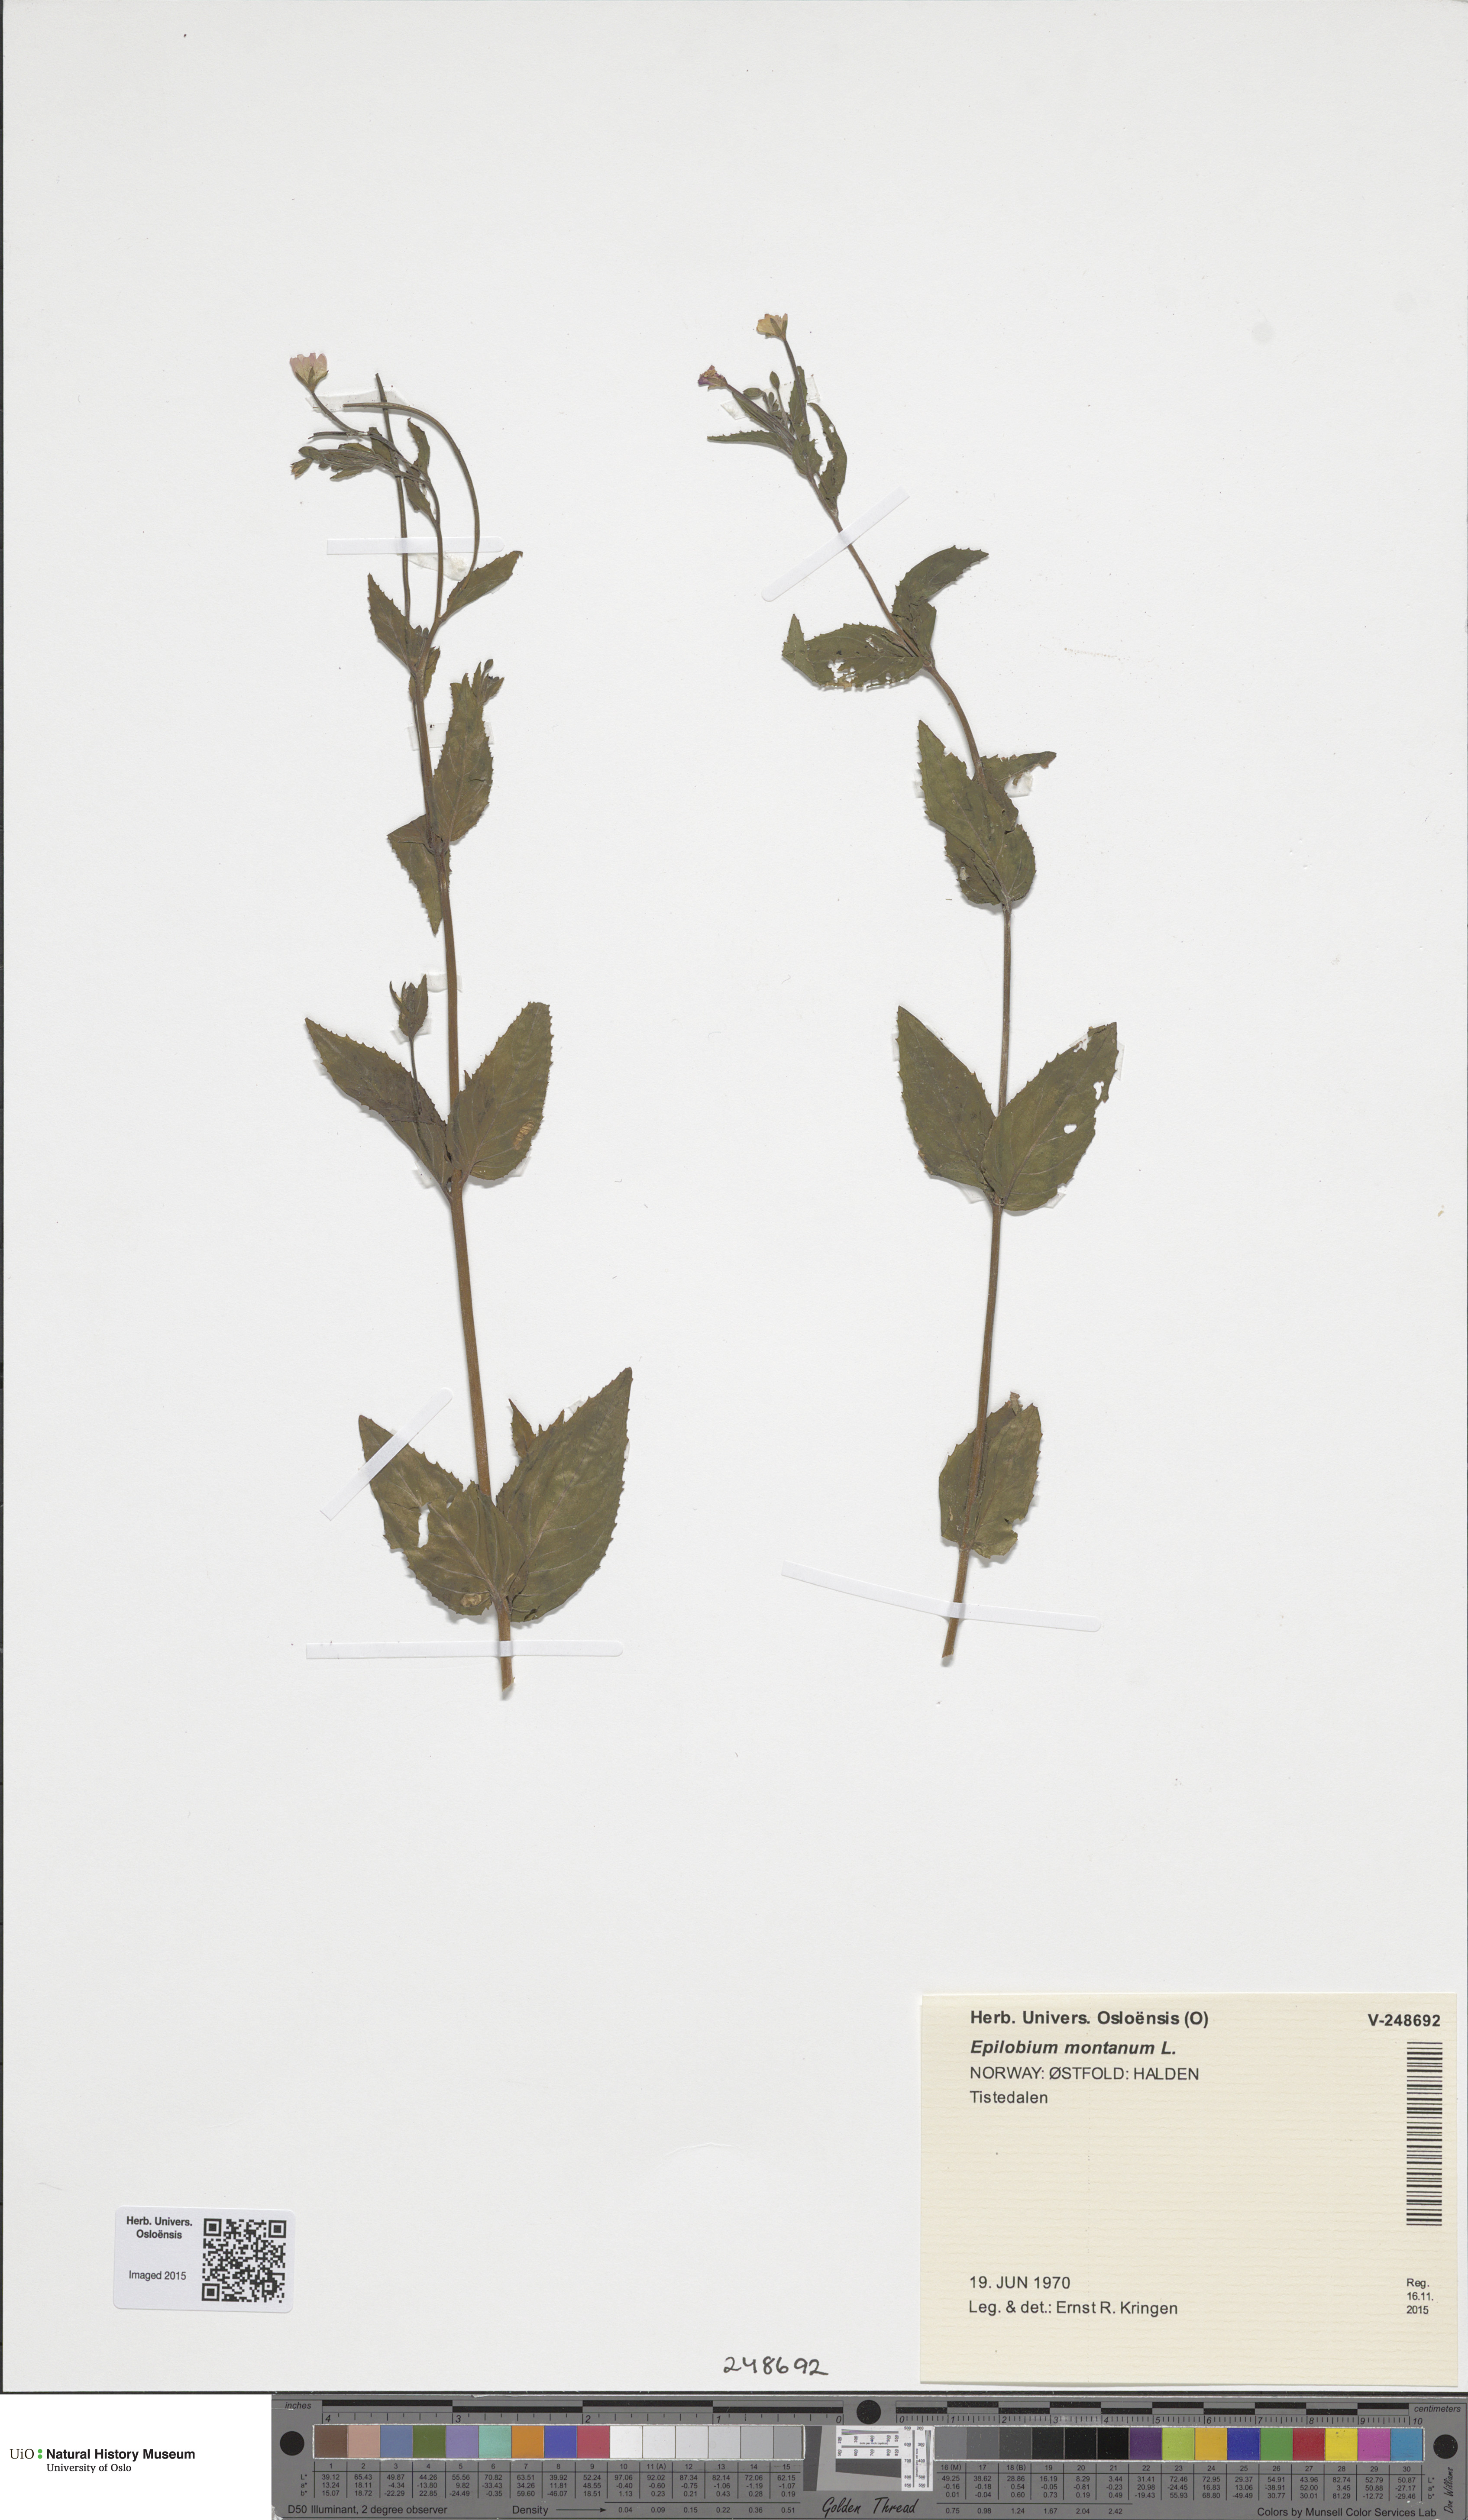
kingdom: Plantae
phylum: Tracheophyta
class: Magnoliopsida
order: Myrtales
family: Onagraceae
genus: Epilobium
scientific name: Epilobium montanum
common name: Broad-leaved willowherb
